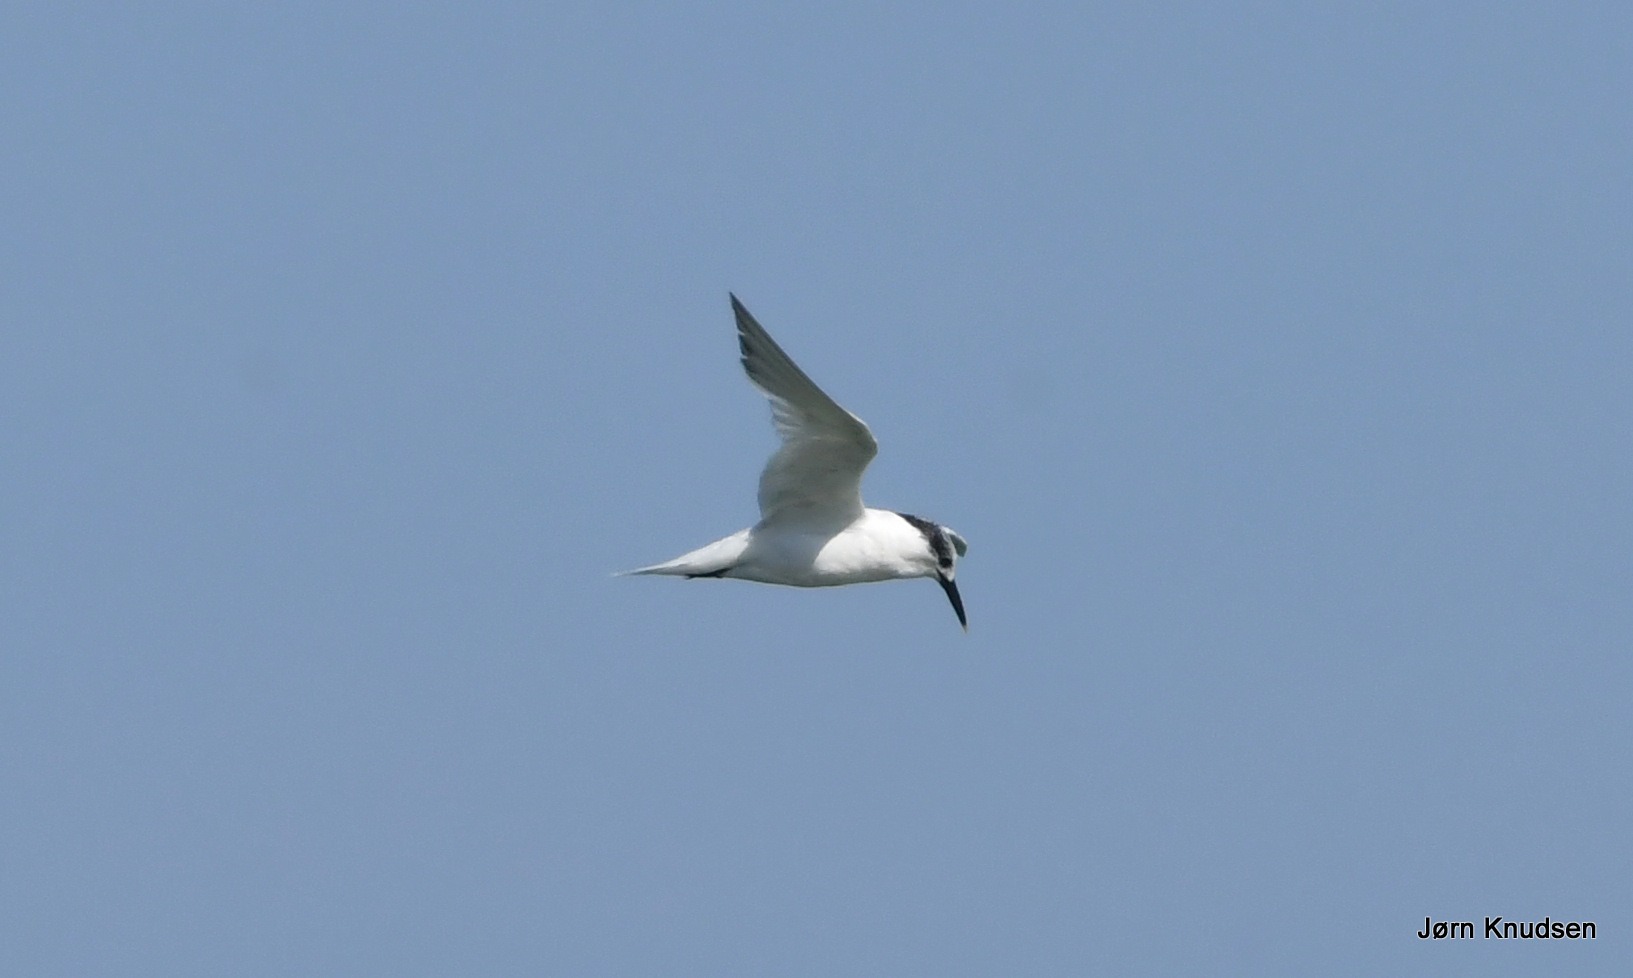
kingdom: Animalia
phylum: Chordata
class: Aves
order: Charadriiformes
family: Laridae
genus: Thalasseus
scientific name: Thalasseus sandvicensis
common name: Splitterne
